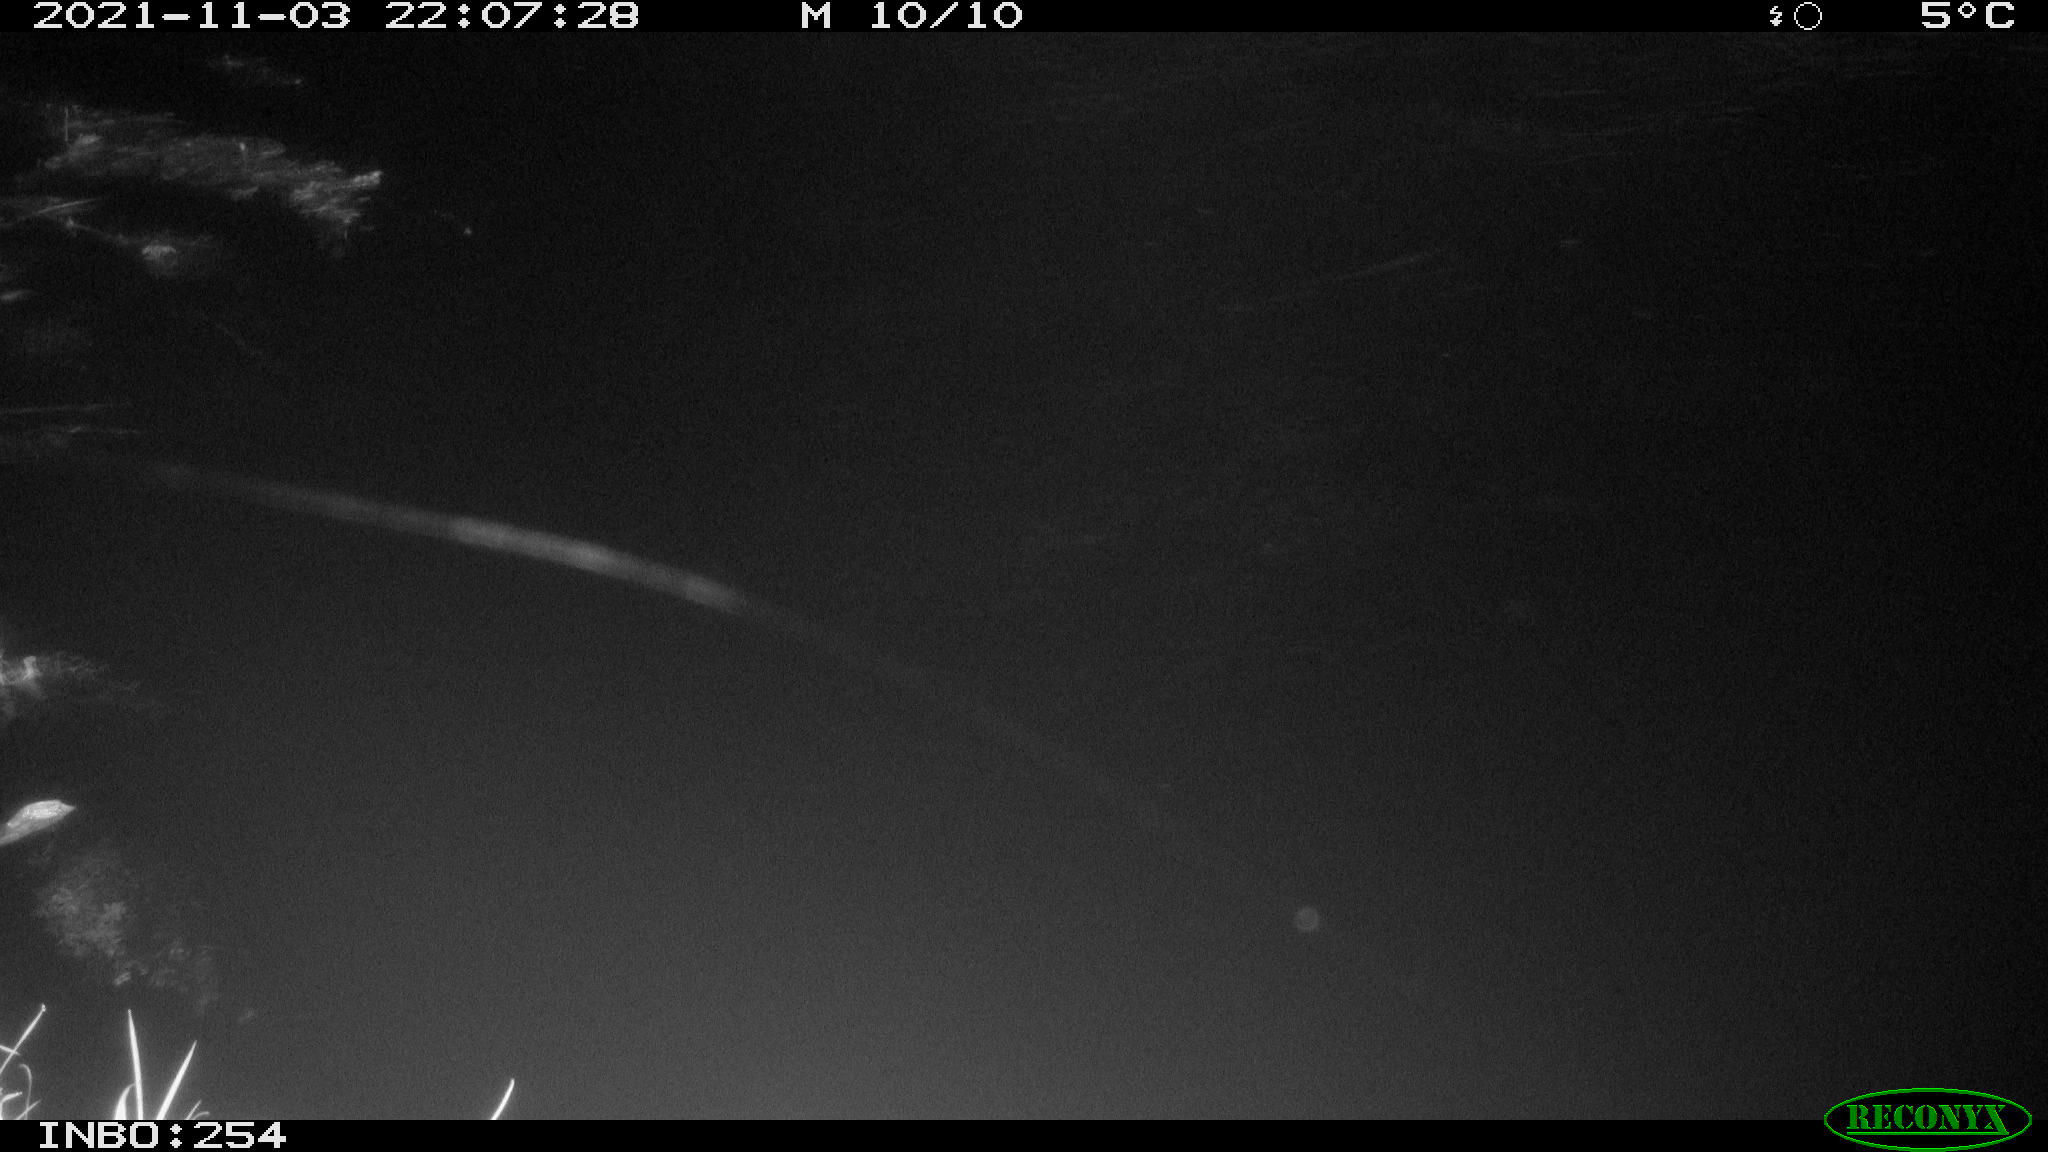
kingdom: Animalia
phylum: Chordata
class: Mammalia
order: Rodentia
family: Muridae
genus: Rattus
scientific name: Rattus norvegicus
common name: Brown rat
